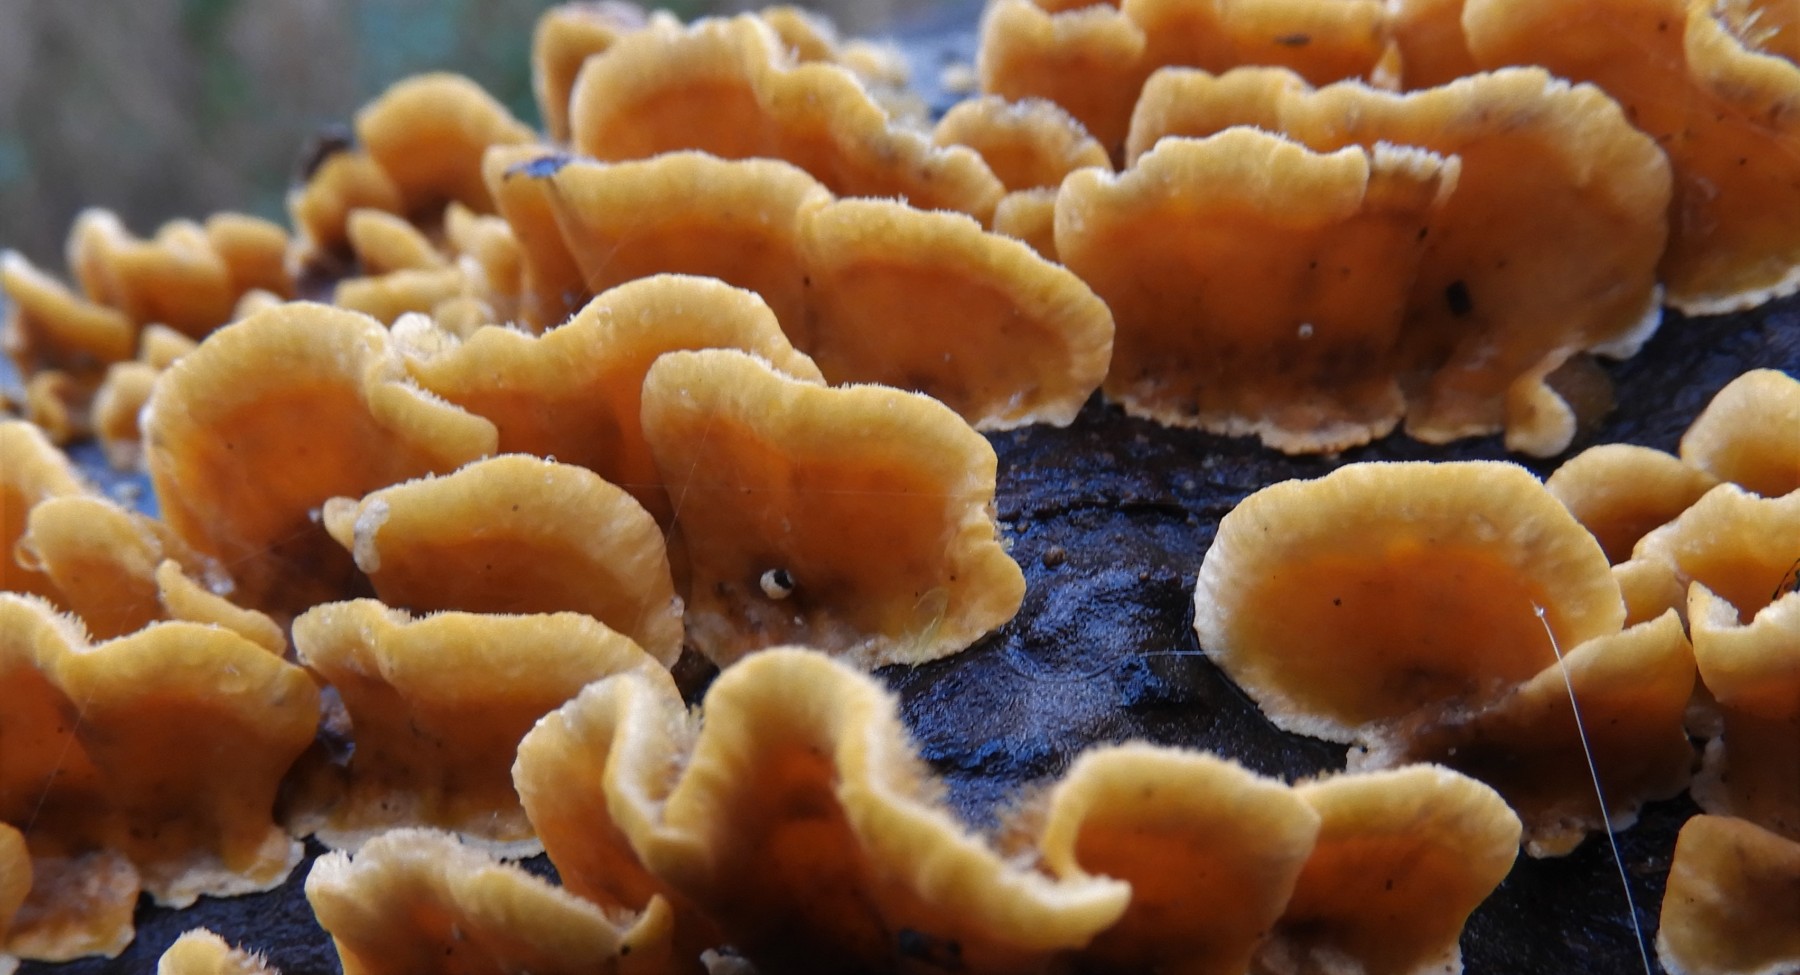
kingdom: Fungi
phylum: Basidiomycota
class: Agaricomycetes
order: Russulales
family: Stereaceae
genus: Stereum
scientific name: Stereum hirsutum
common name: håret lædersvamp
